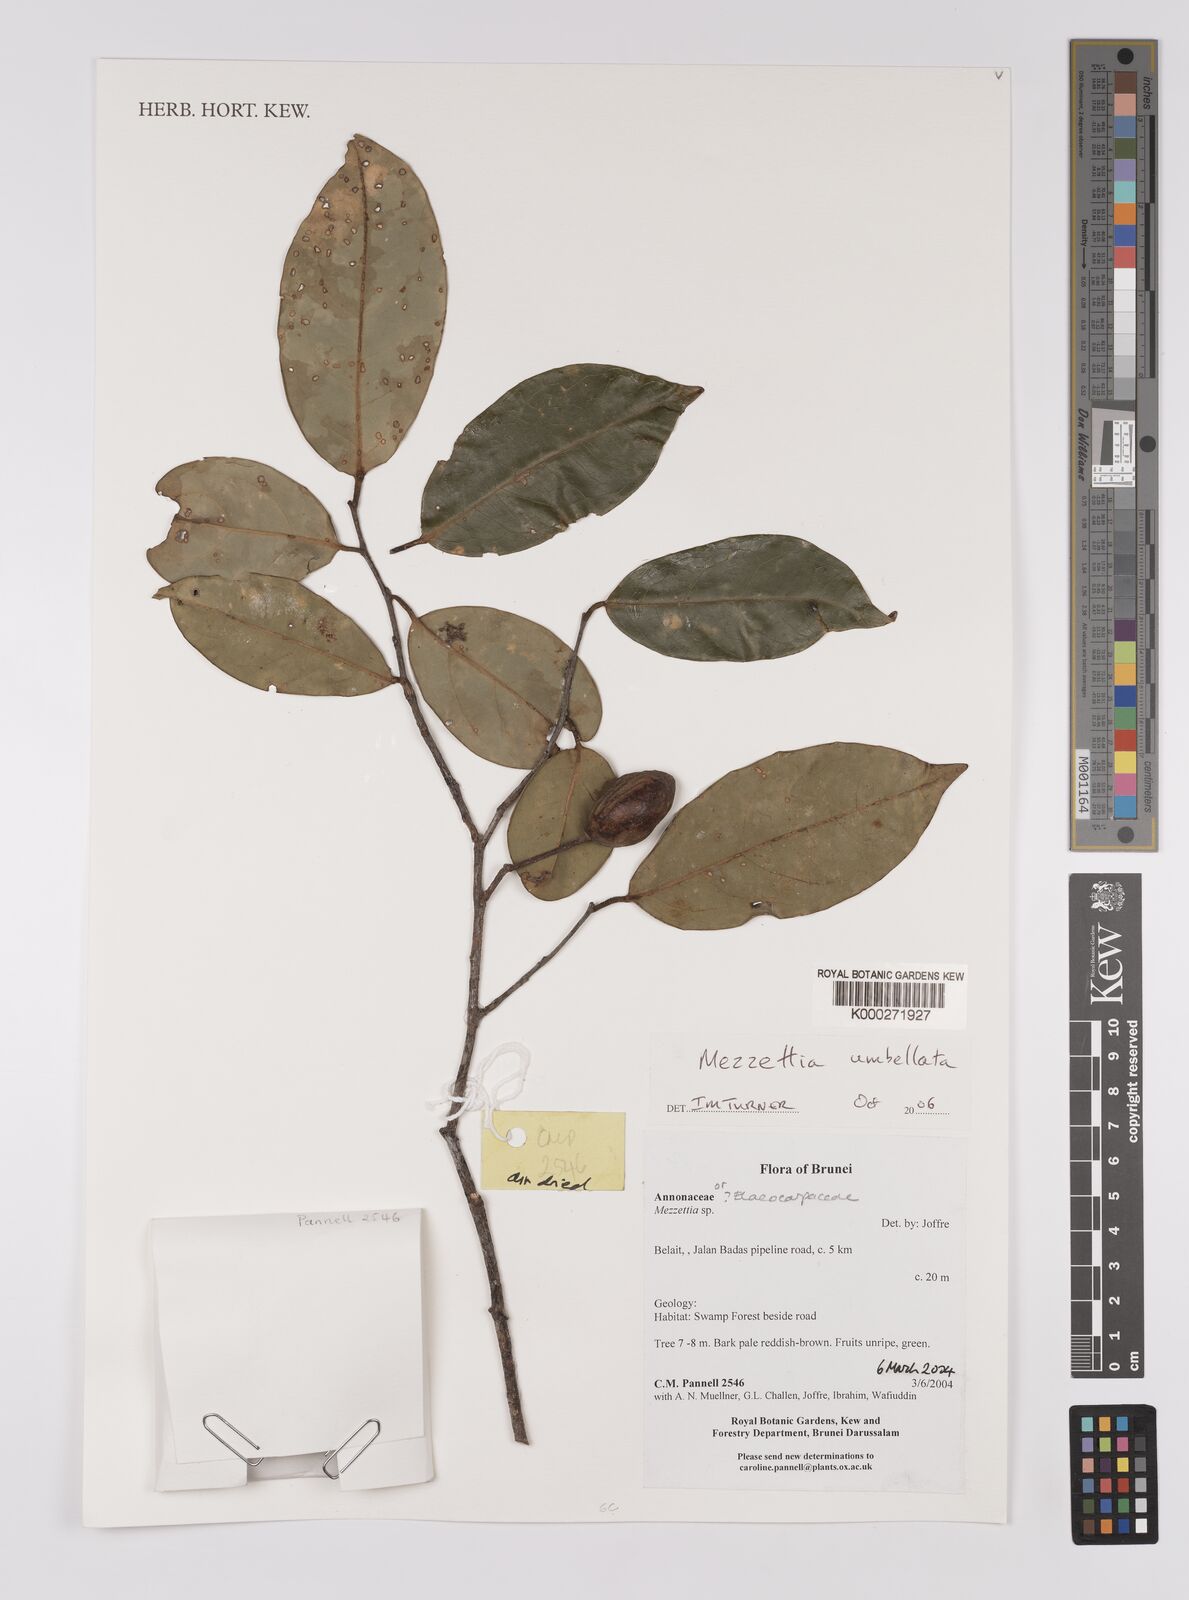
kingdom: Plantae
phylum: Tracheophyta
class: Magnoliopsida
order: Magnoliales
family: Annonaceae
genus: Mezzettia
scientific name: Mezzettia umbellata
